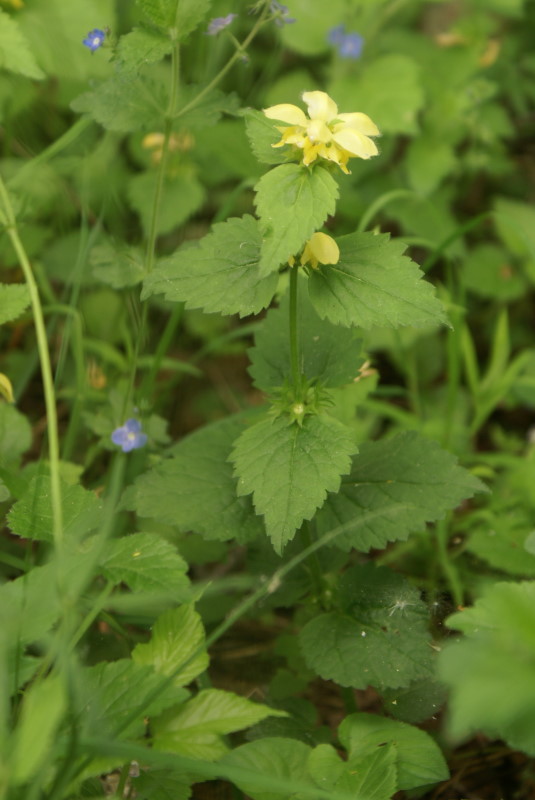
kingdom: Plantae
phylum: Tracheophyta
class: Magnoliopsida
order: Lamiales
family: Lamiaceae
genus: Lamium
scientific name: Lamium galeobdolon
